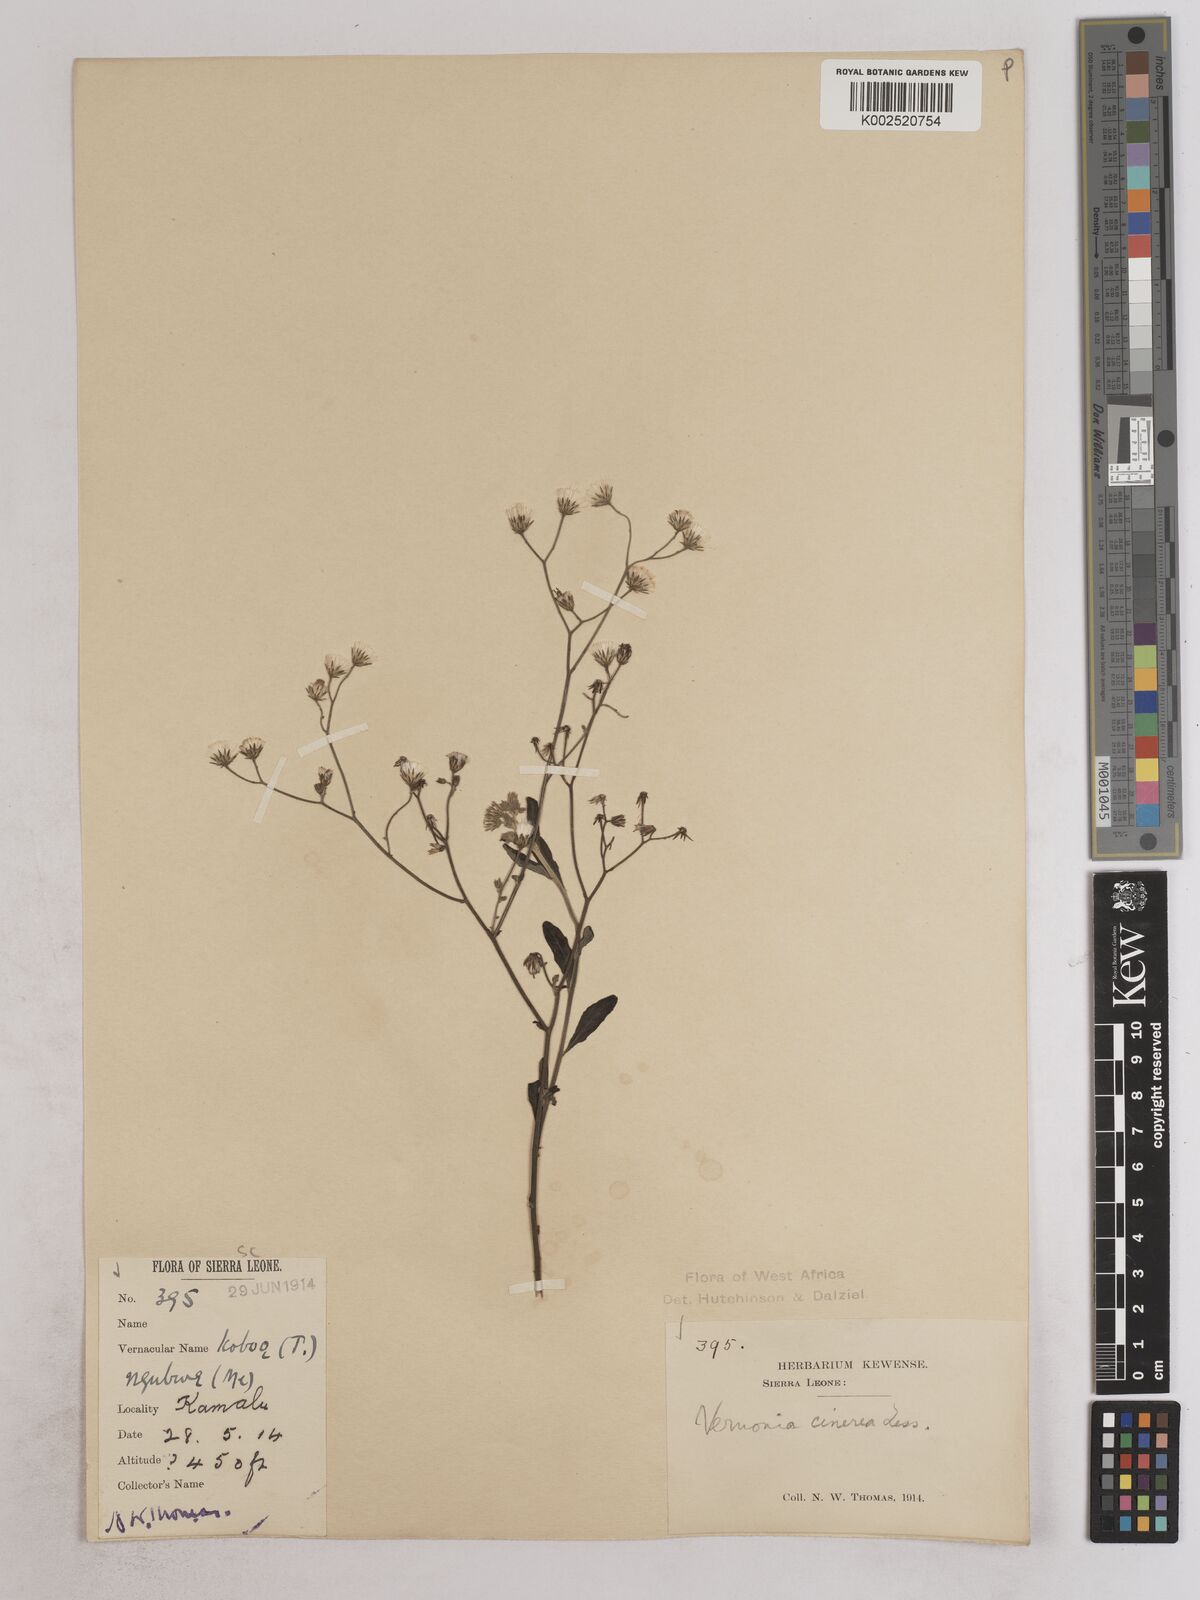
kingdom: Plantae
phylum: Tracheophyta
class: Magnoliopsida
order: Asterales
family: Asteraceae
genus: Cyanthillium
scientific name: Cyanthillium cinereum
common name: Little ironweed
